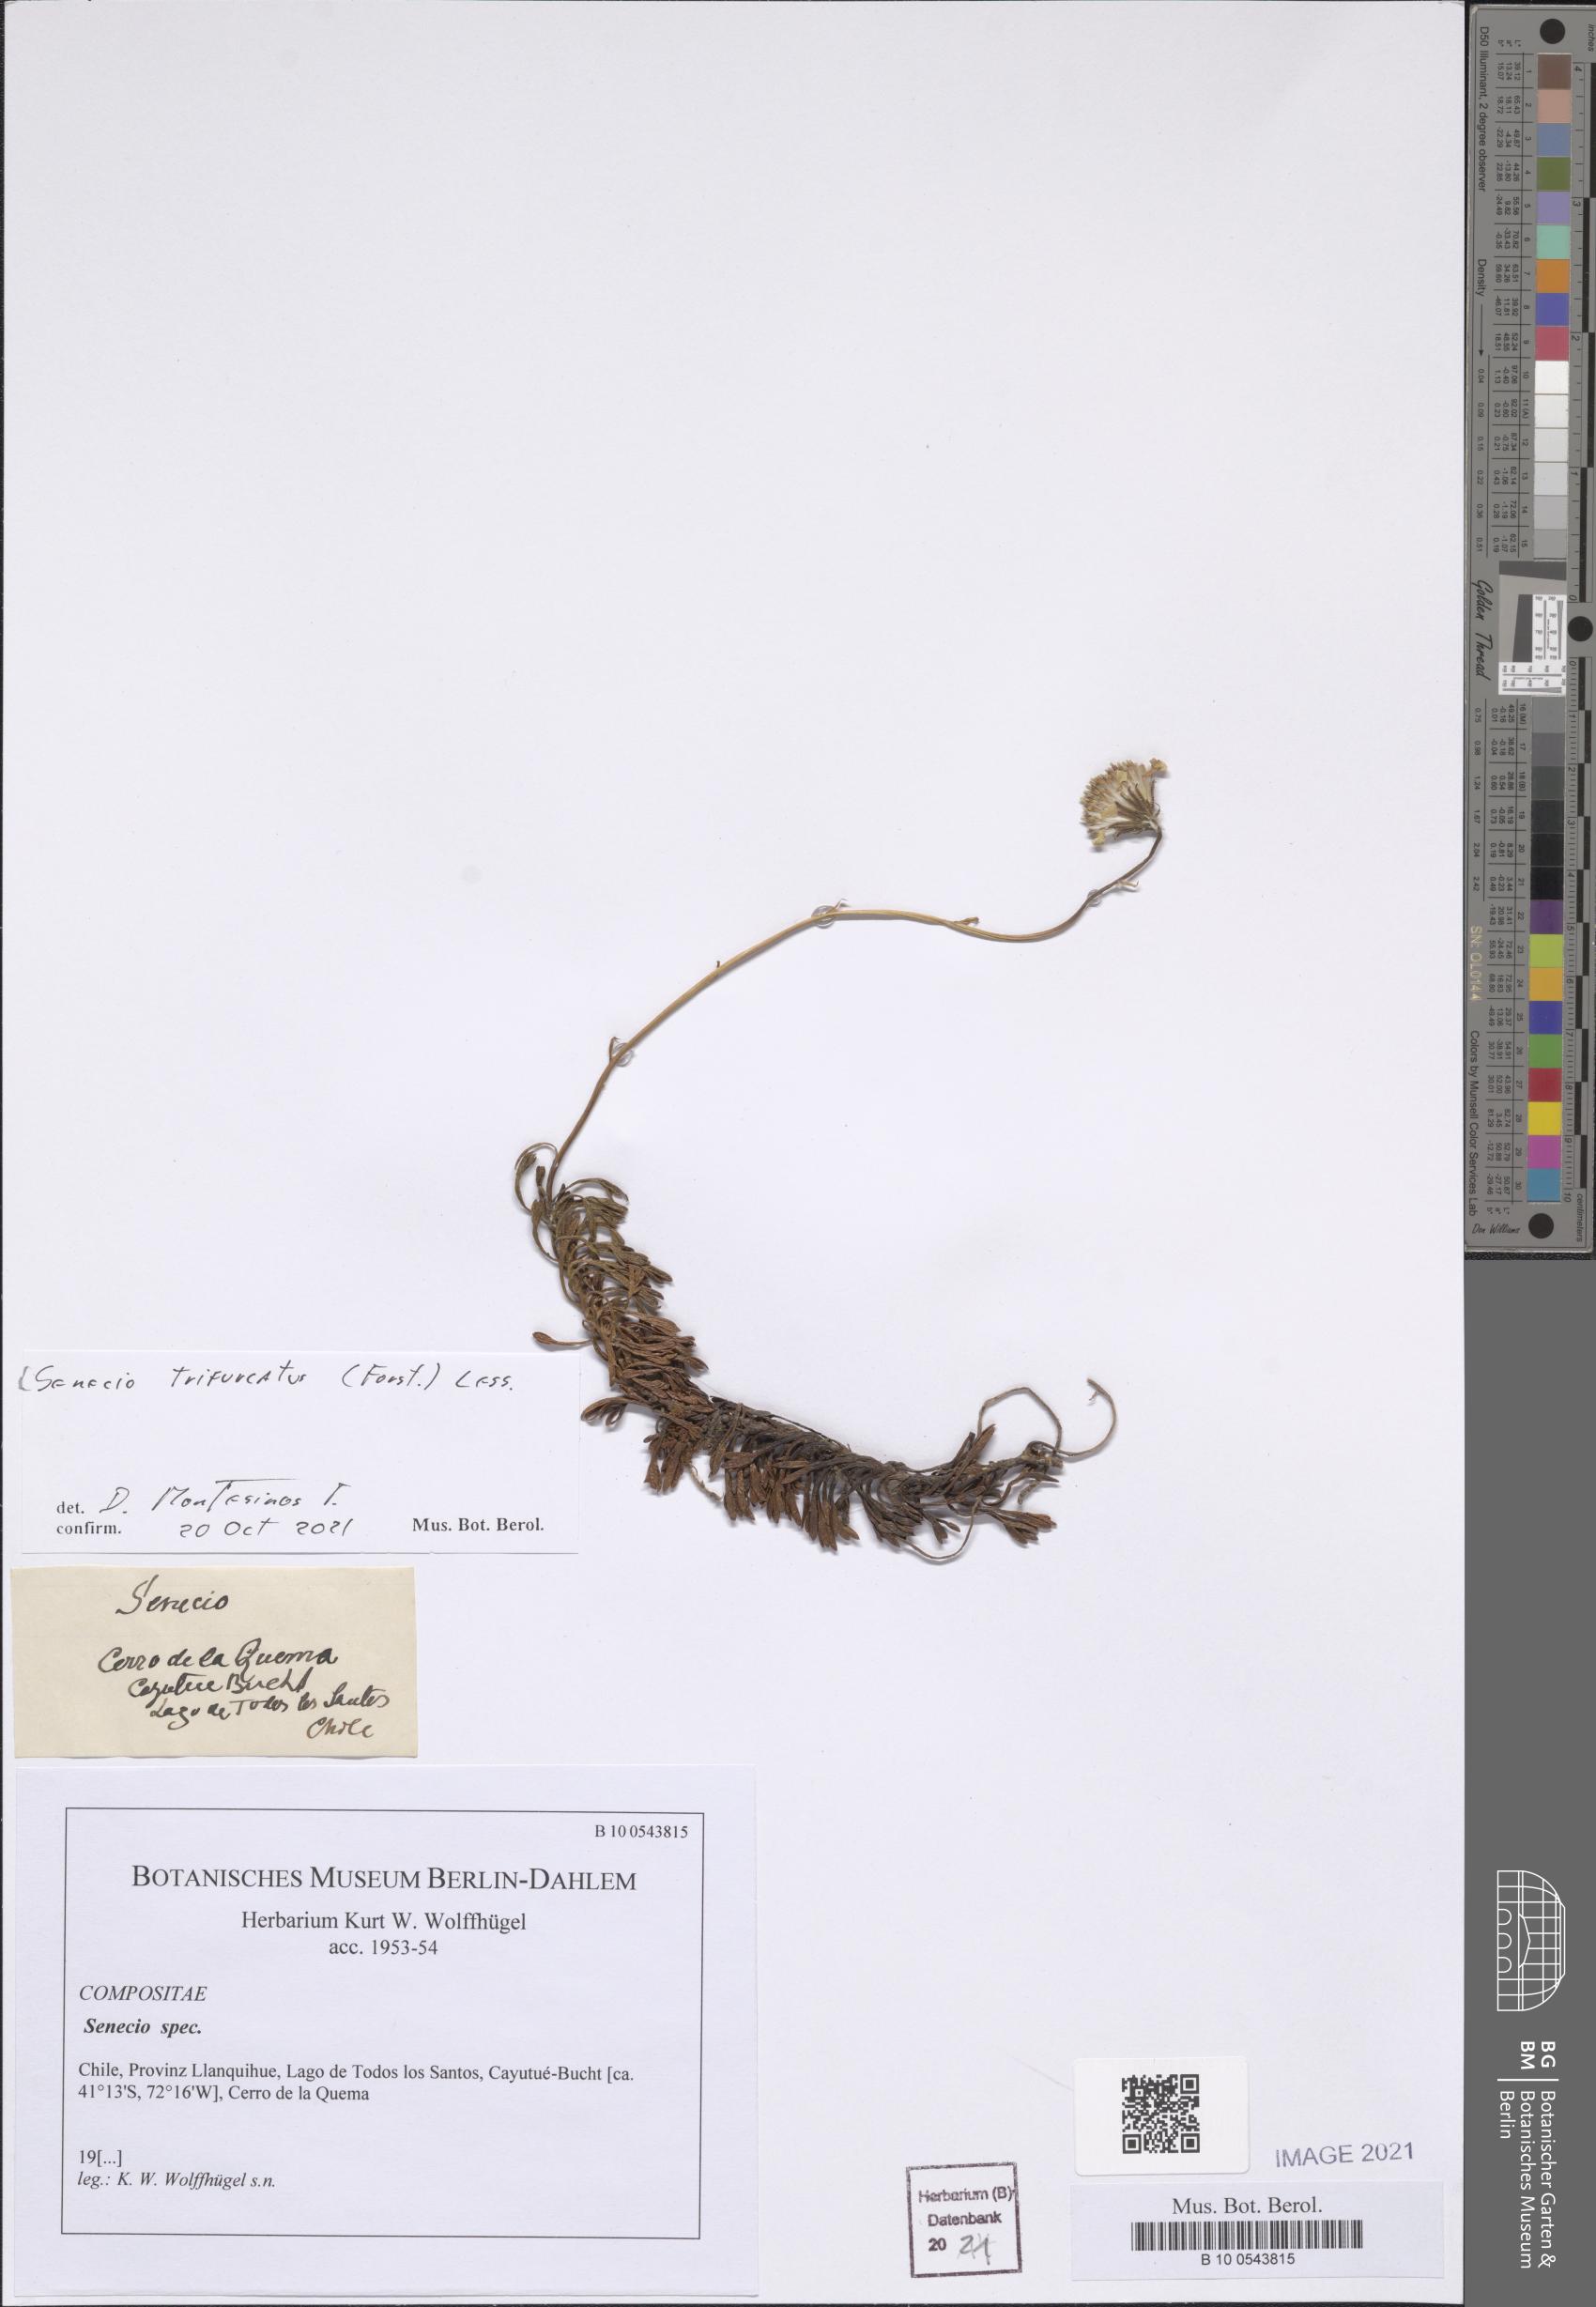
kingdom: Plantae
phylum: Tracheophyta
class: Magnoliopsida
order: Asterales
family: Asteraceae
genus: Haplosticha
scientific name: Haplosticha trifurcata
